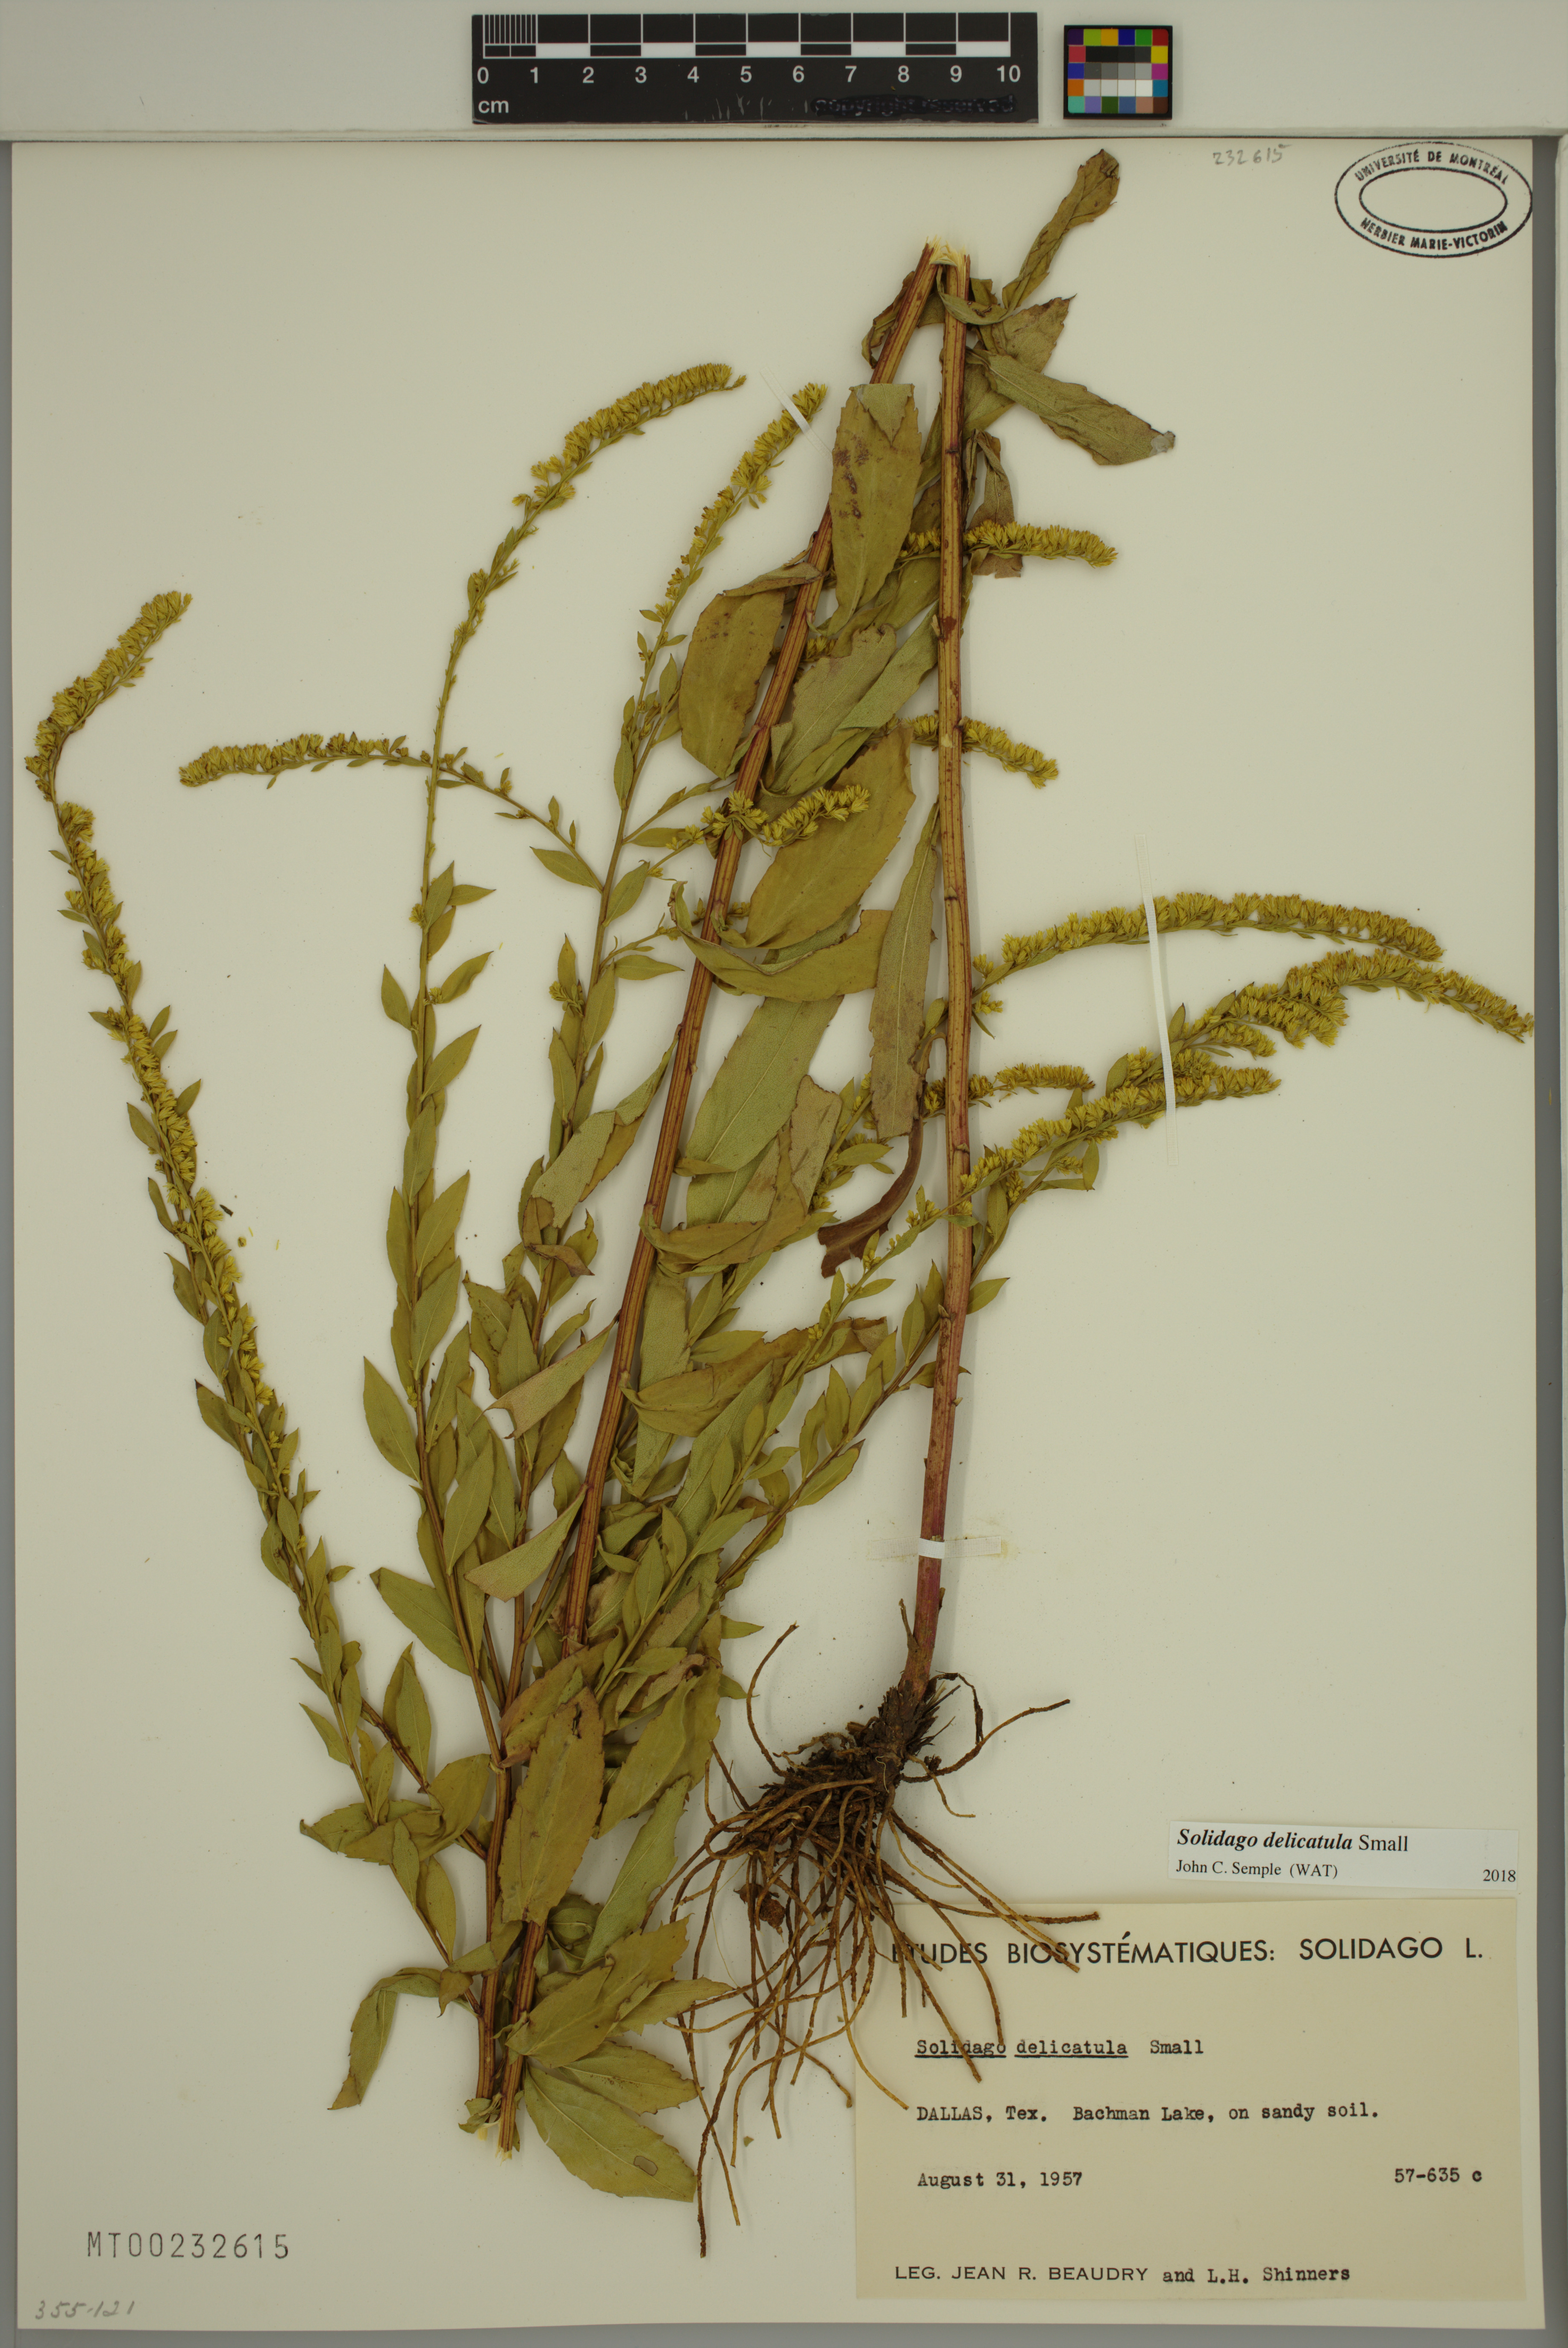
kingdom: Plantae
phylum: Tracheophyta
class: Magnoliopsida
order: Asterales
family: Asteraceae
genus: Solidago
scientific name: Solidago delicatula
